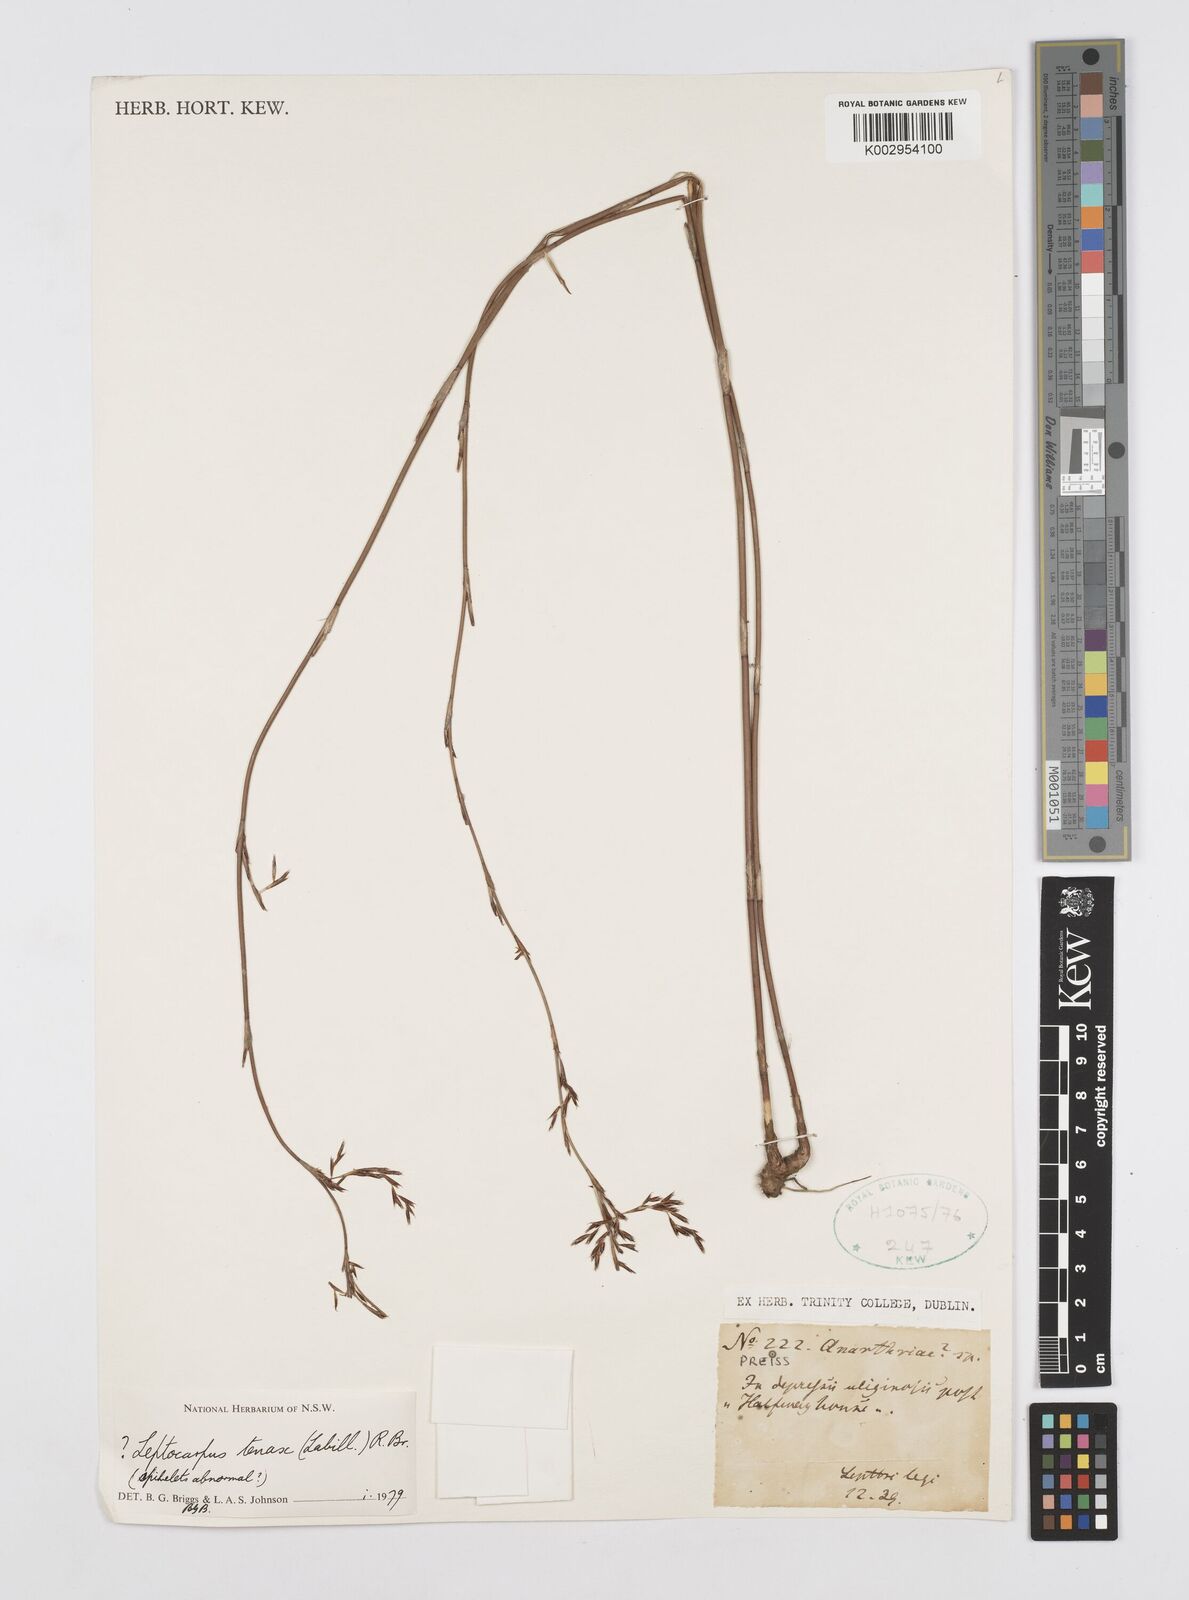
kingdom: Plantae
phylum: Tracheophyta
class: Liliopsida
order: Poales
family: Restionaceae
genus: Leptocarpus
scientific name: Leptocarpus tenax
